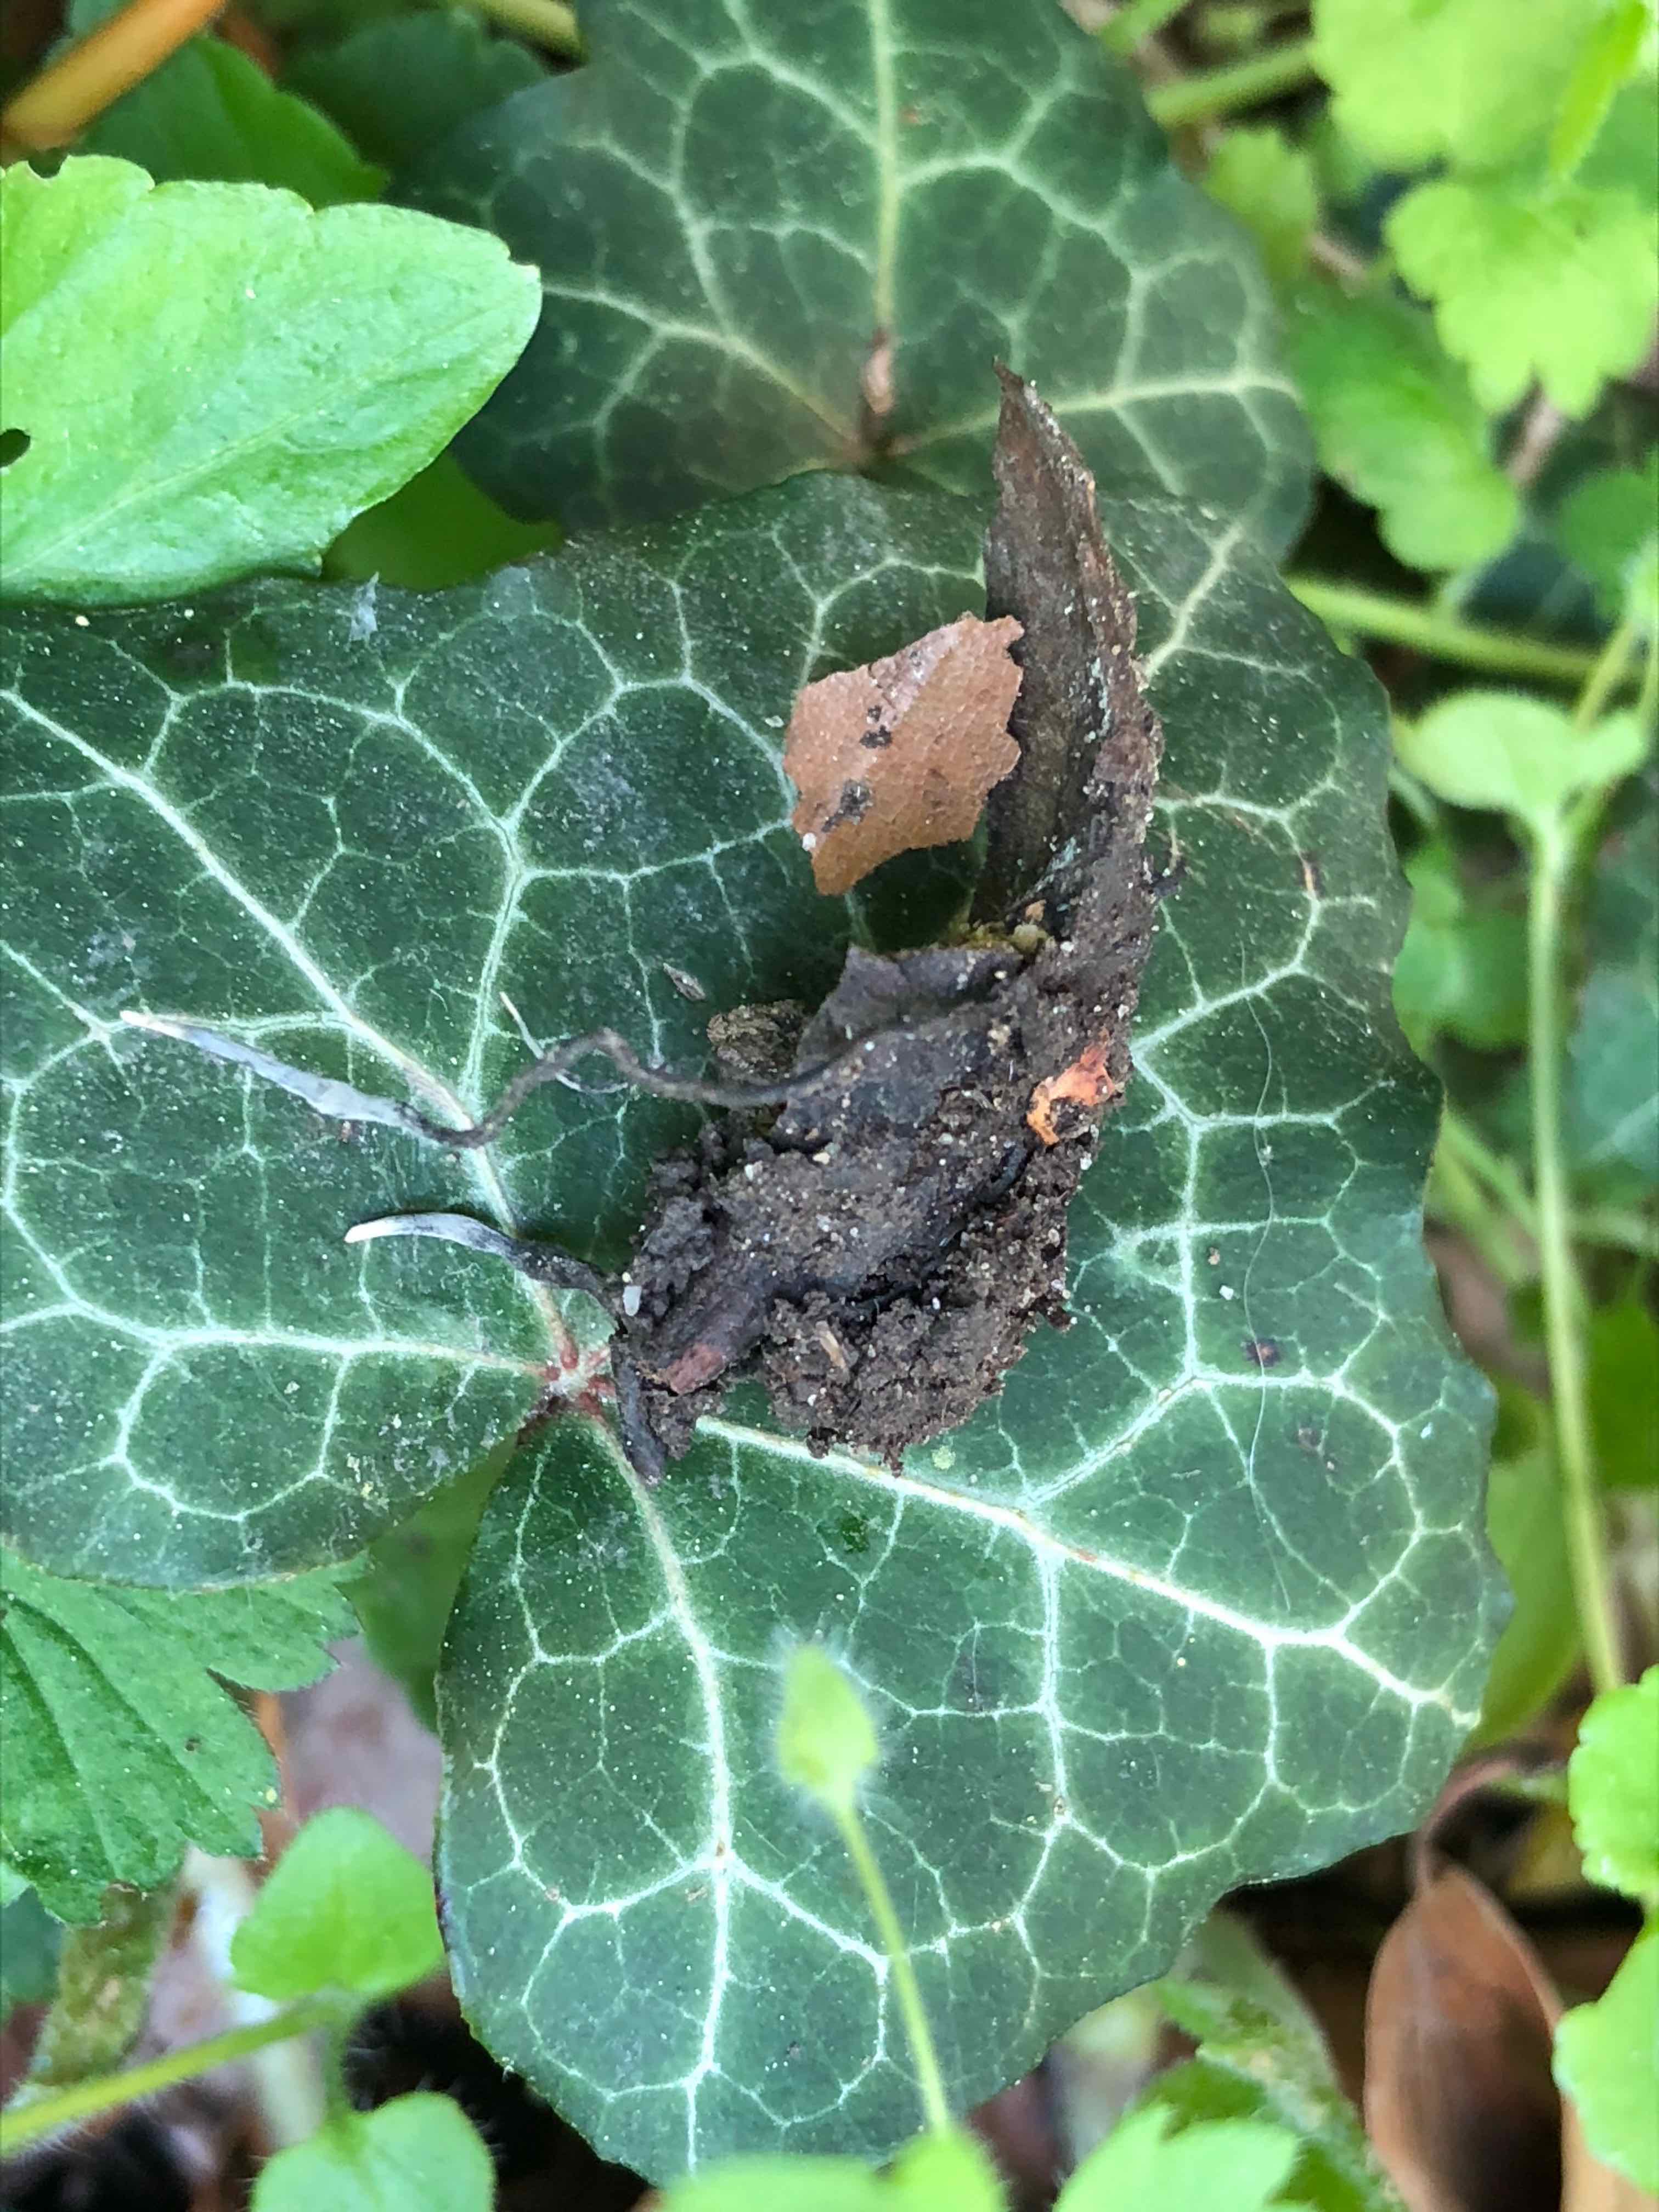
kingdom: Fungi
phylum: Ascomycota
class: Sordariomycetes
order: Xylariales
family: Xylariaceae
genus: Xylaria
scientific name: Xylaria carpophila
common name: bogskål-stødsvamp
